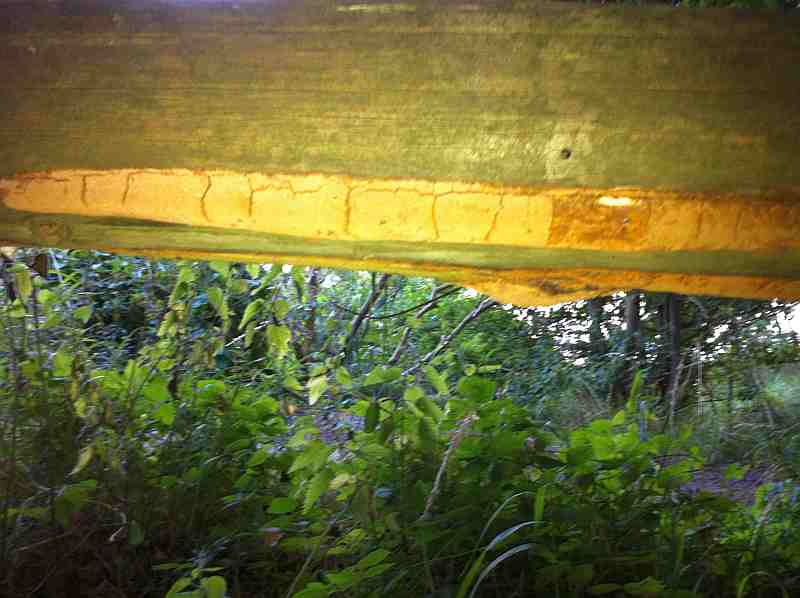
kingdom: Fungi
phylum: Basidiomycota
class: Agaricomycetes
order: Hymenochaetales
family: Hymenochaetaceae
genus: Fuscoporia
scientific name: Fuscoporia ferrea
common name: skorpe-ildporesvamp
